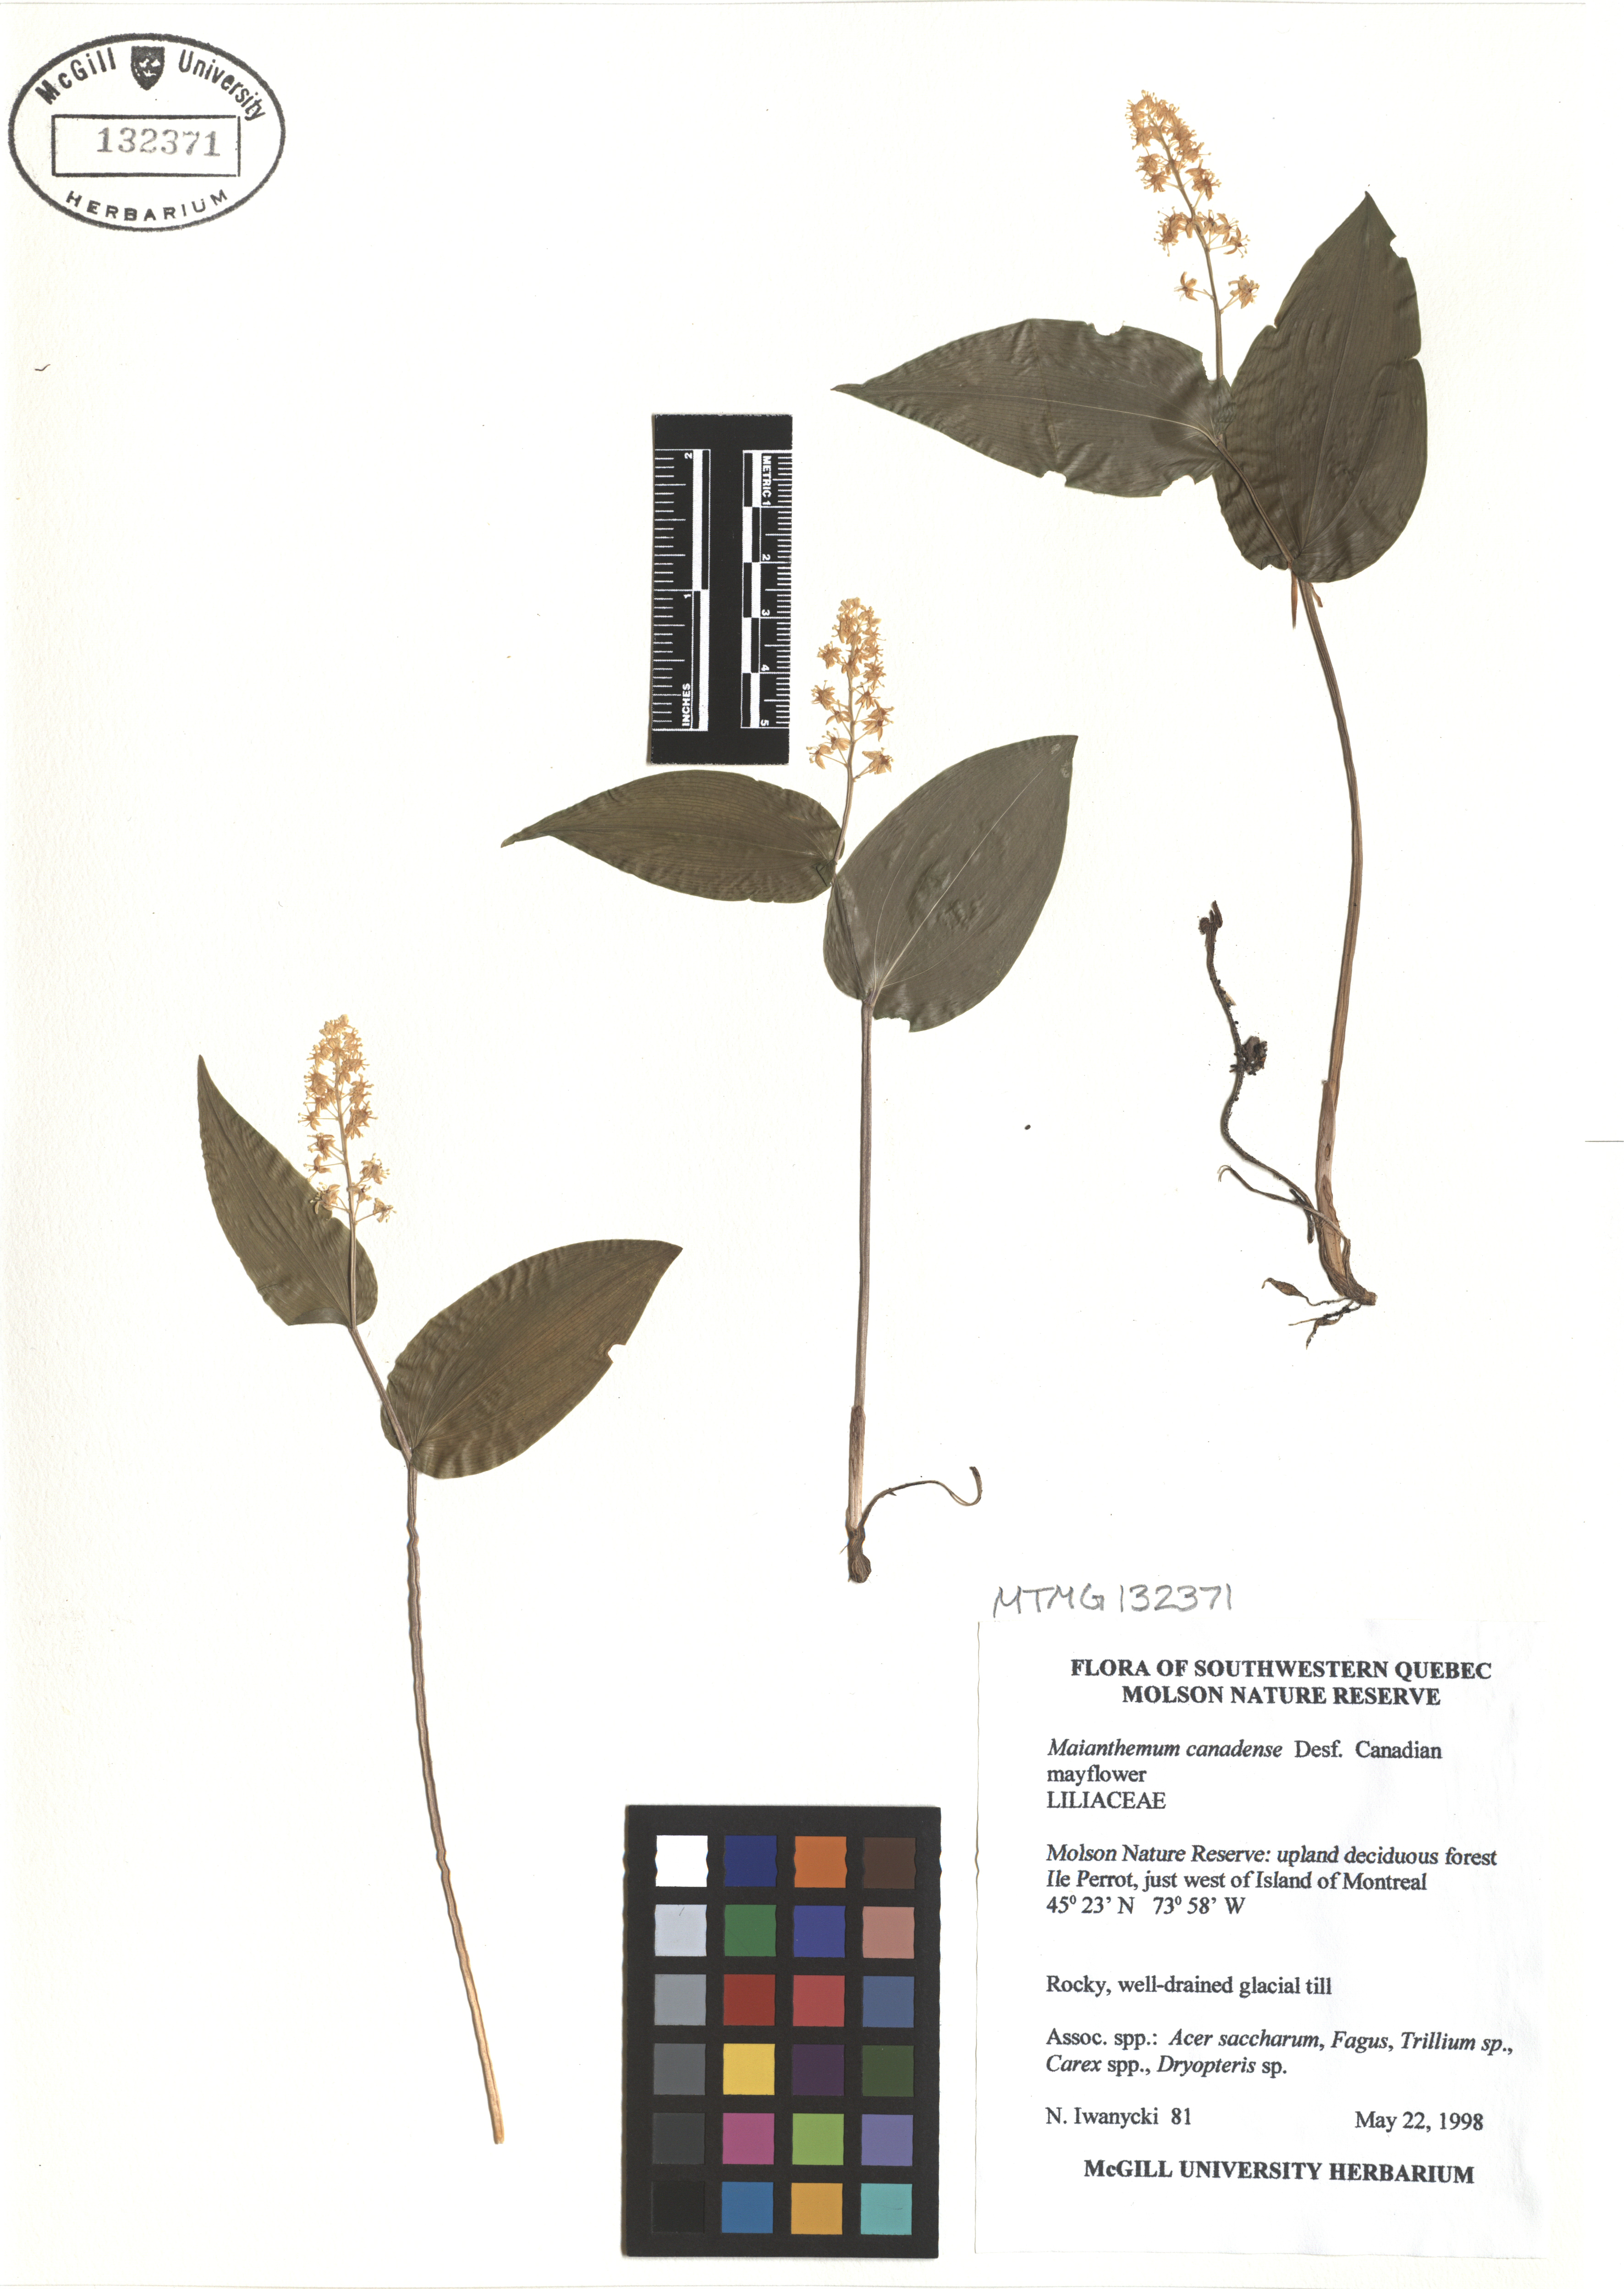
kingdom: Plantae
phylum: Tracheophyta
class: Liliopsida
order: Asparagales
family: Asparagaceae
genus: Maianthemum
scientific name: Maianthemum canadense
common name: False lily-of-the-valley
